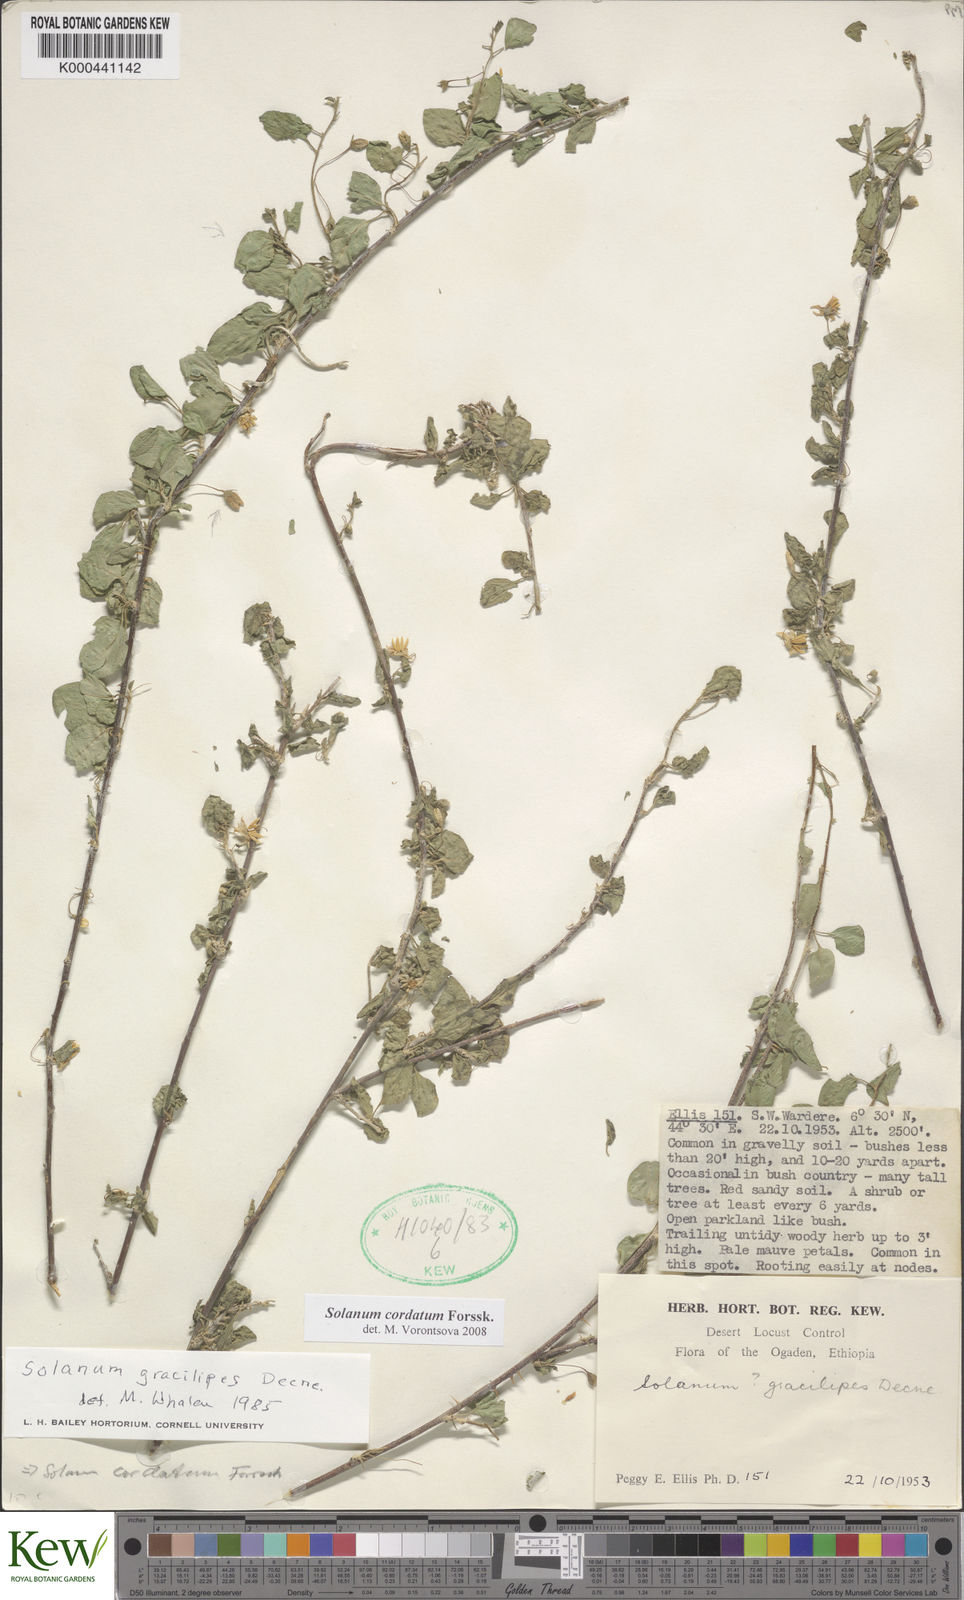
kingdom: Plantae
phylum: Tracheophyta
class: Magnoliopsida
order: Solanales
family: Solanaceae
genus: Solanum
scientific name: Solanum cordatum
